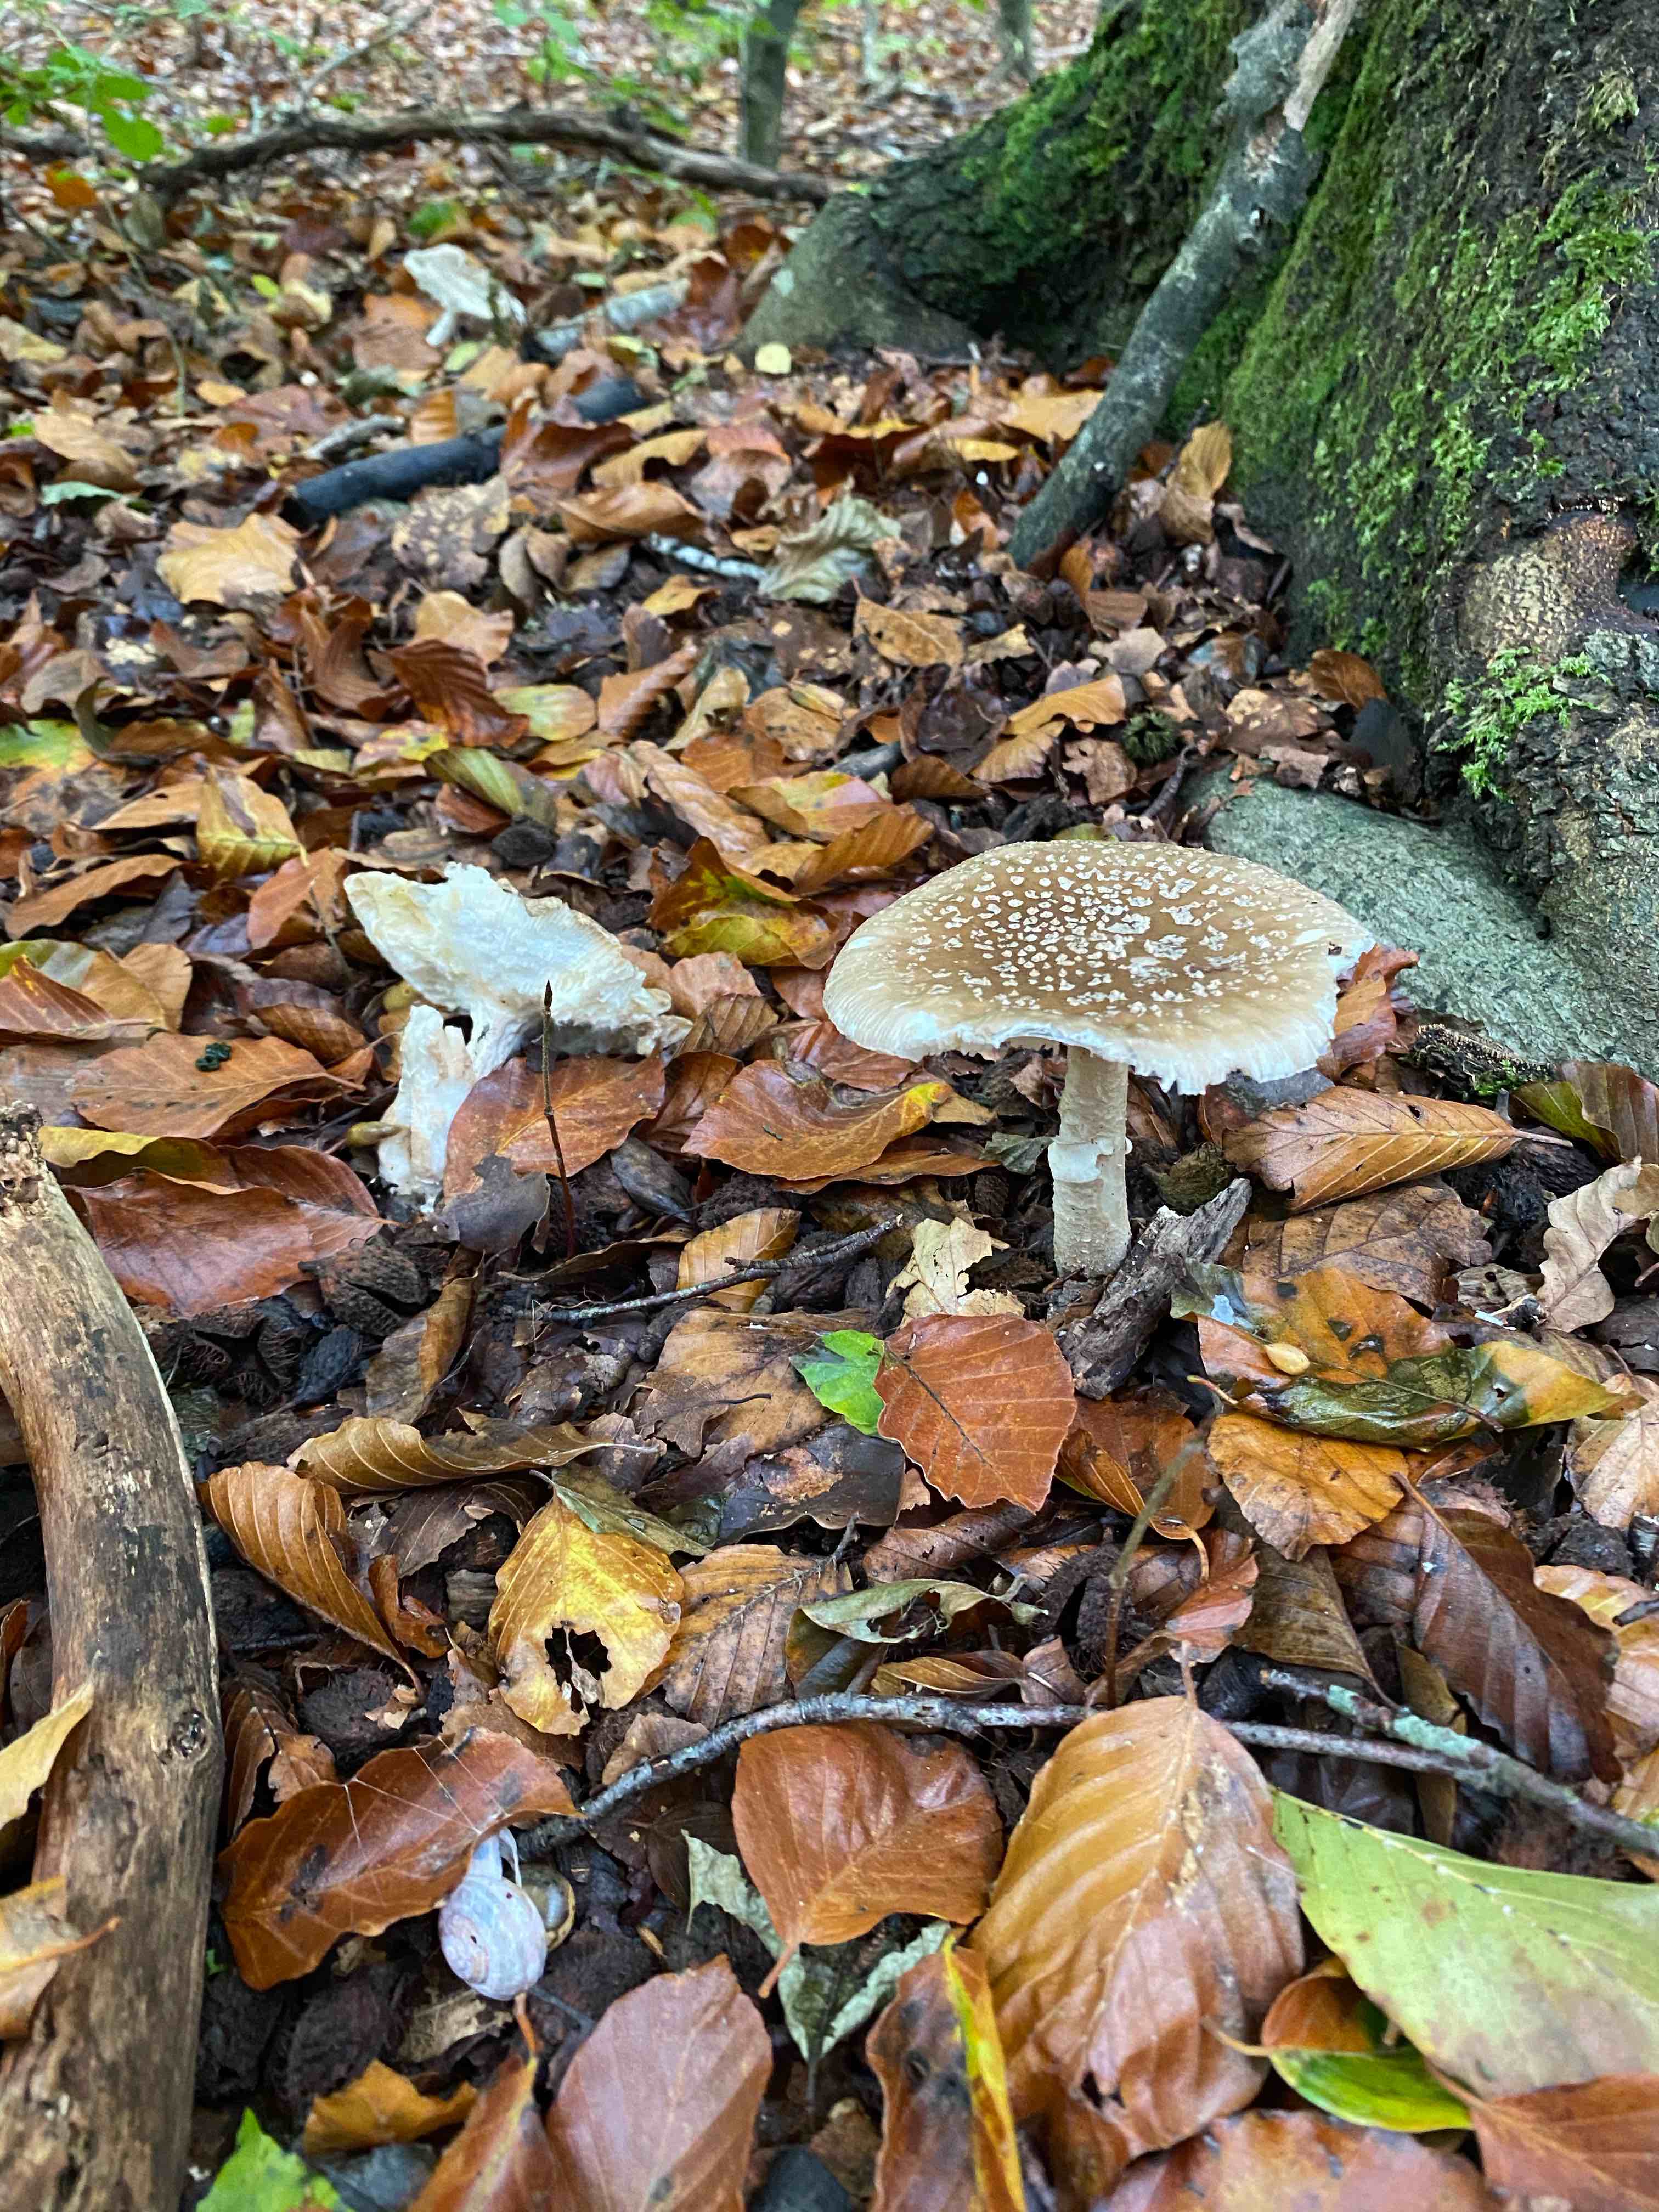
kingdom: Fungi
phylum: Basidiomycota
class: Agaricomycetes
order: Agaricales
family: Amanitaceae
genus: Amanita
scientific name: Amanita pantherina
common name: panter-fluesvamp
